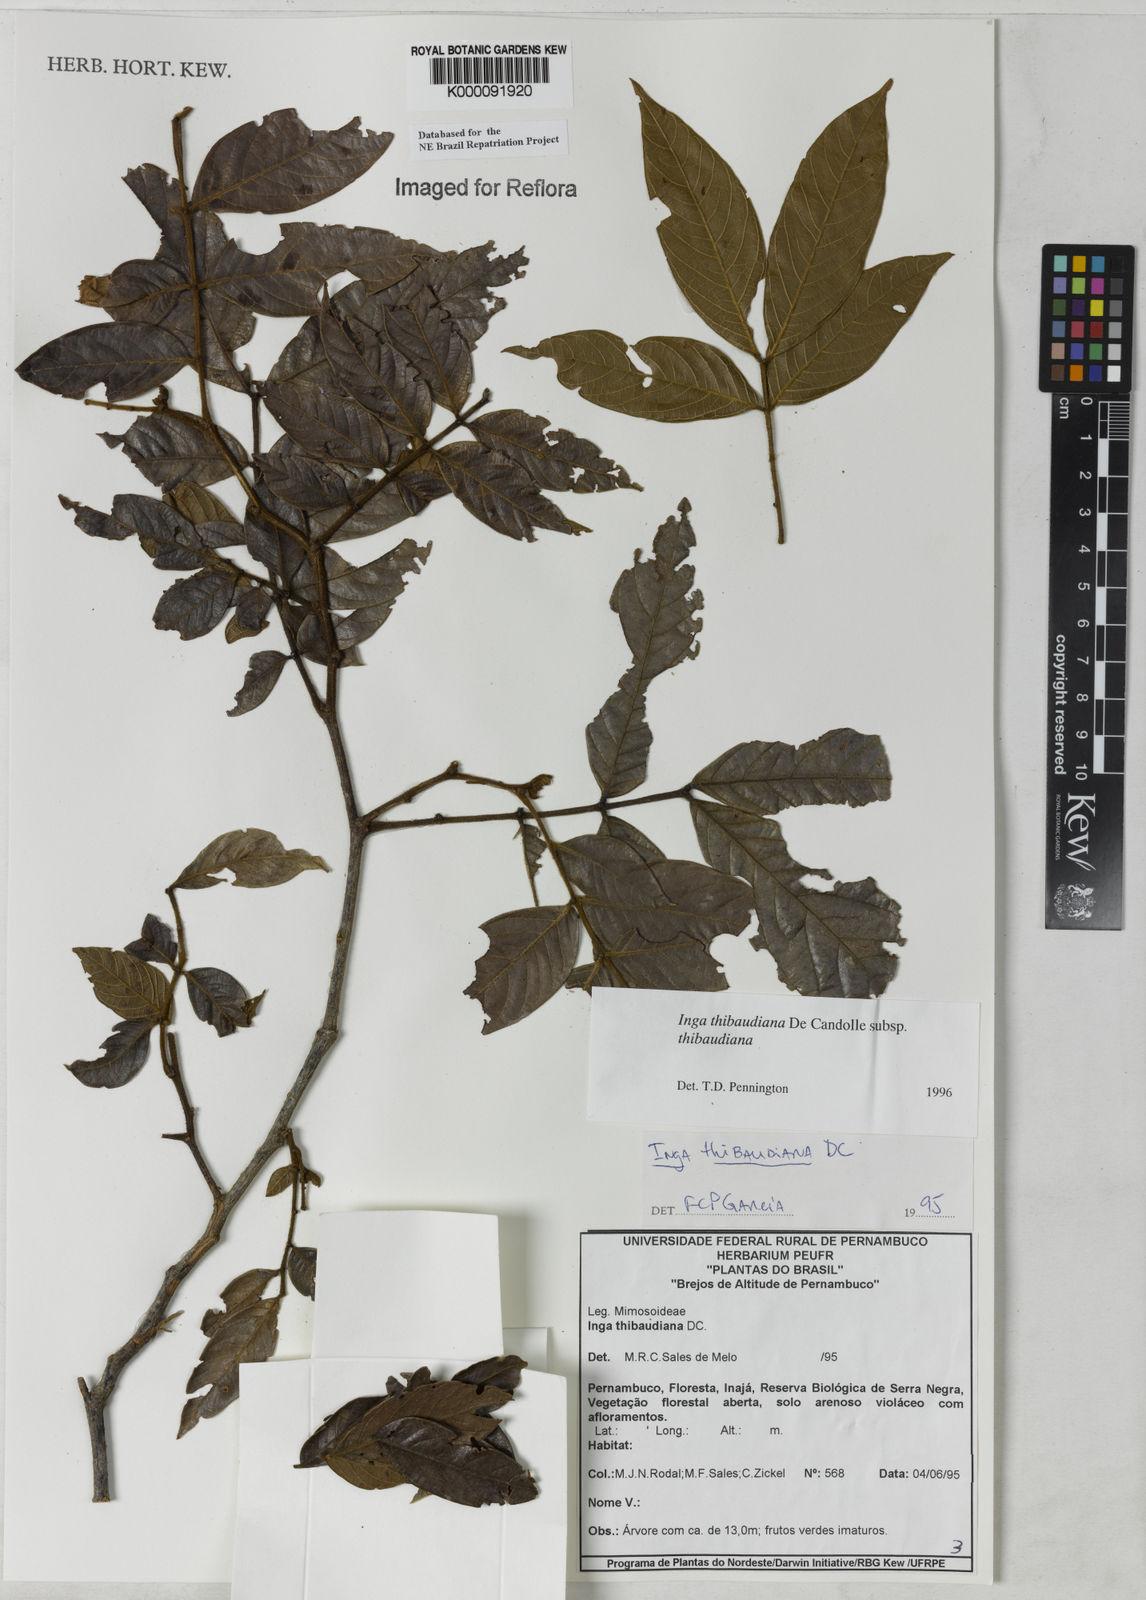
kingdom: Plantae
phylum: Tracheophyta
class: Magnoliopsida
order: Fabales
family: Fabaceae
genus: Inga
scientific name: Inga thibaudiana
